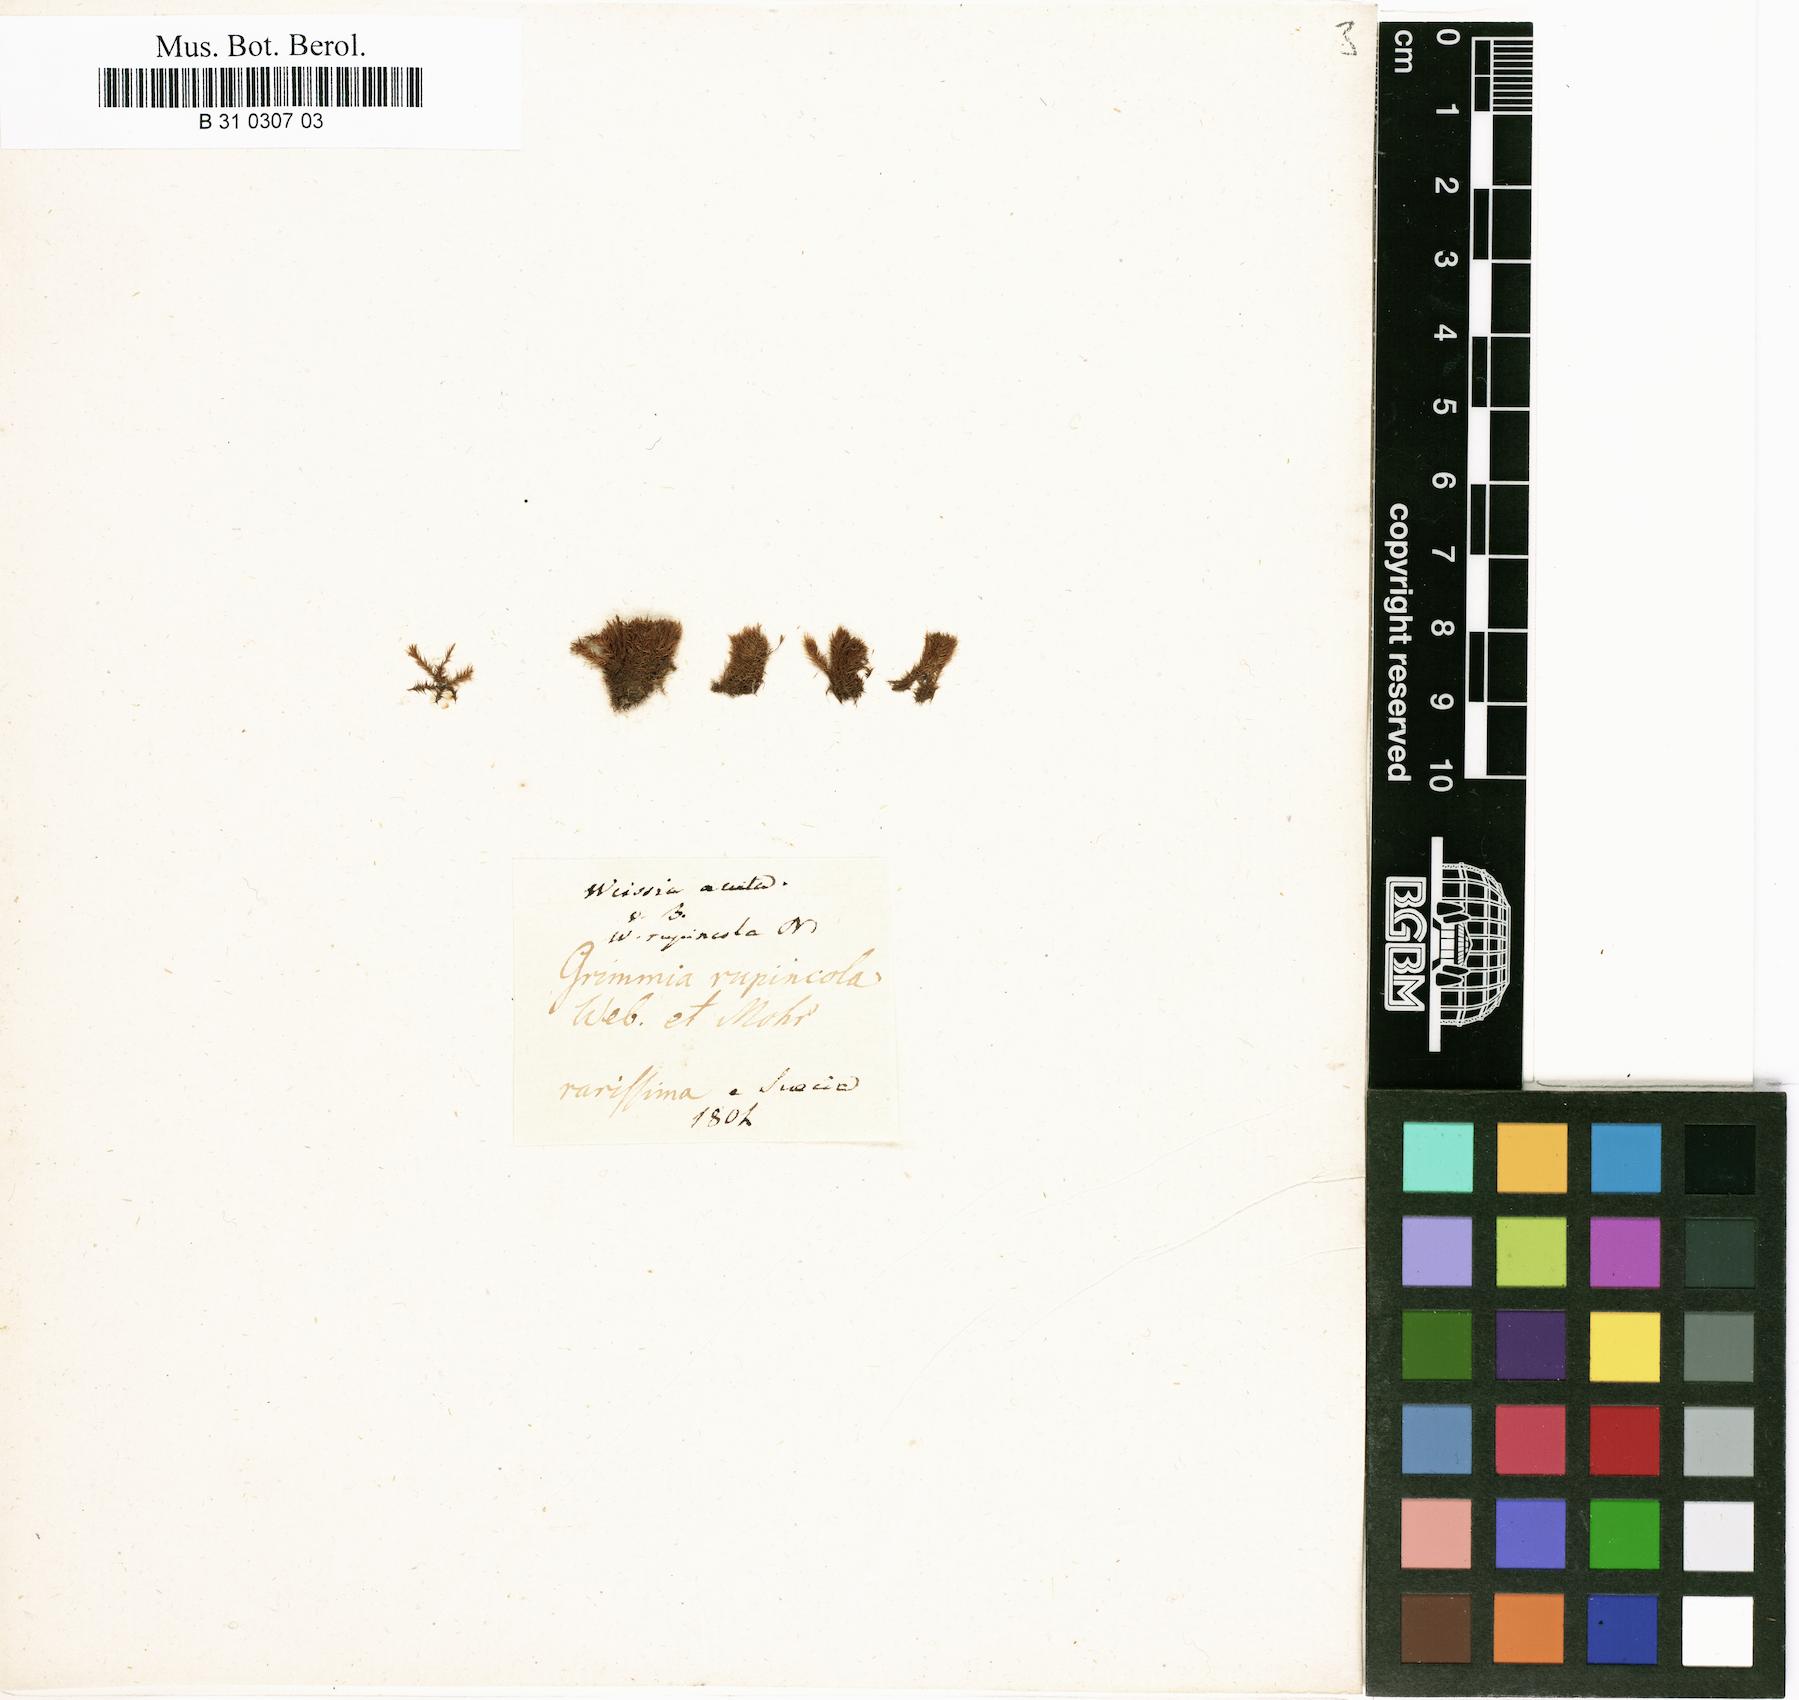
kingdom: Plantae
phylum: Bryophyta
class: Bryopsida
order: Grimmiales
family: Seligeriaceae
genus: Blindia
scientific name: Blindia acuta
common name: Sharp-leaved blind's moss
